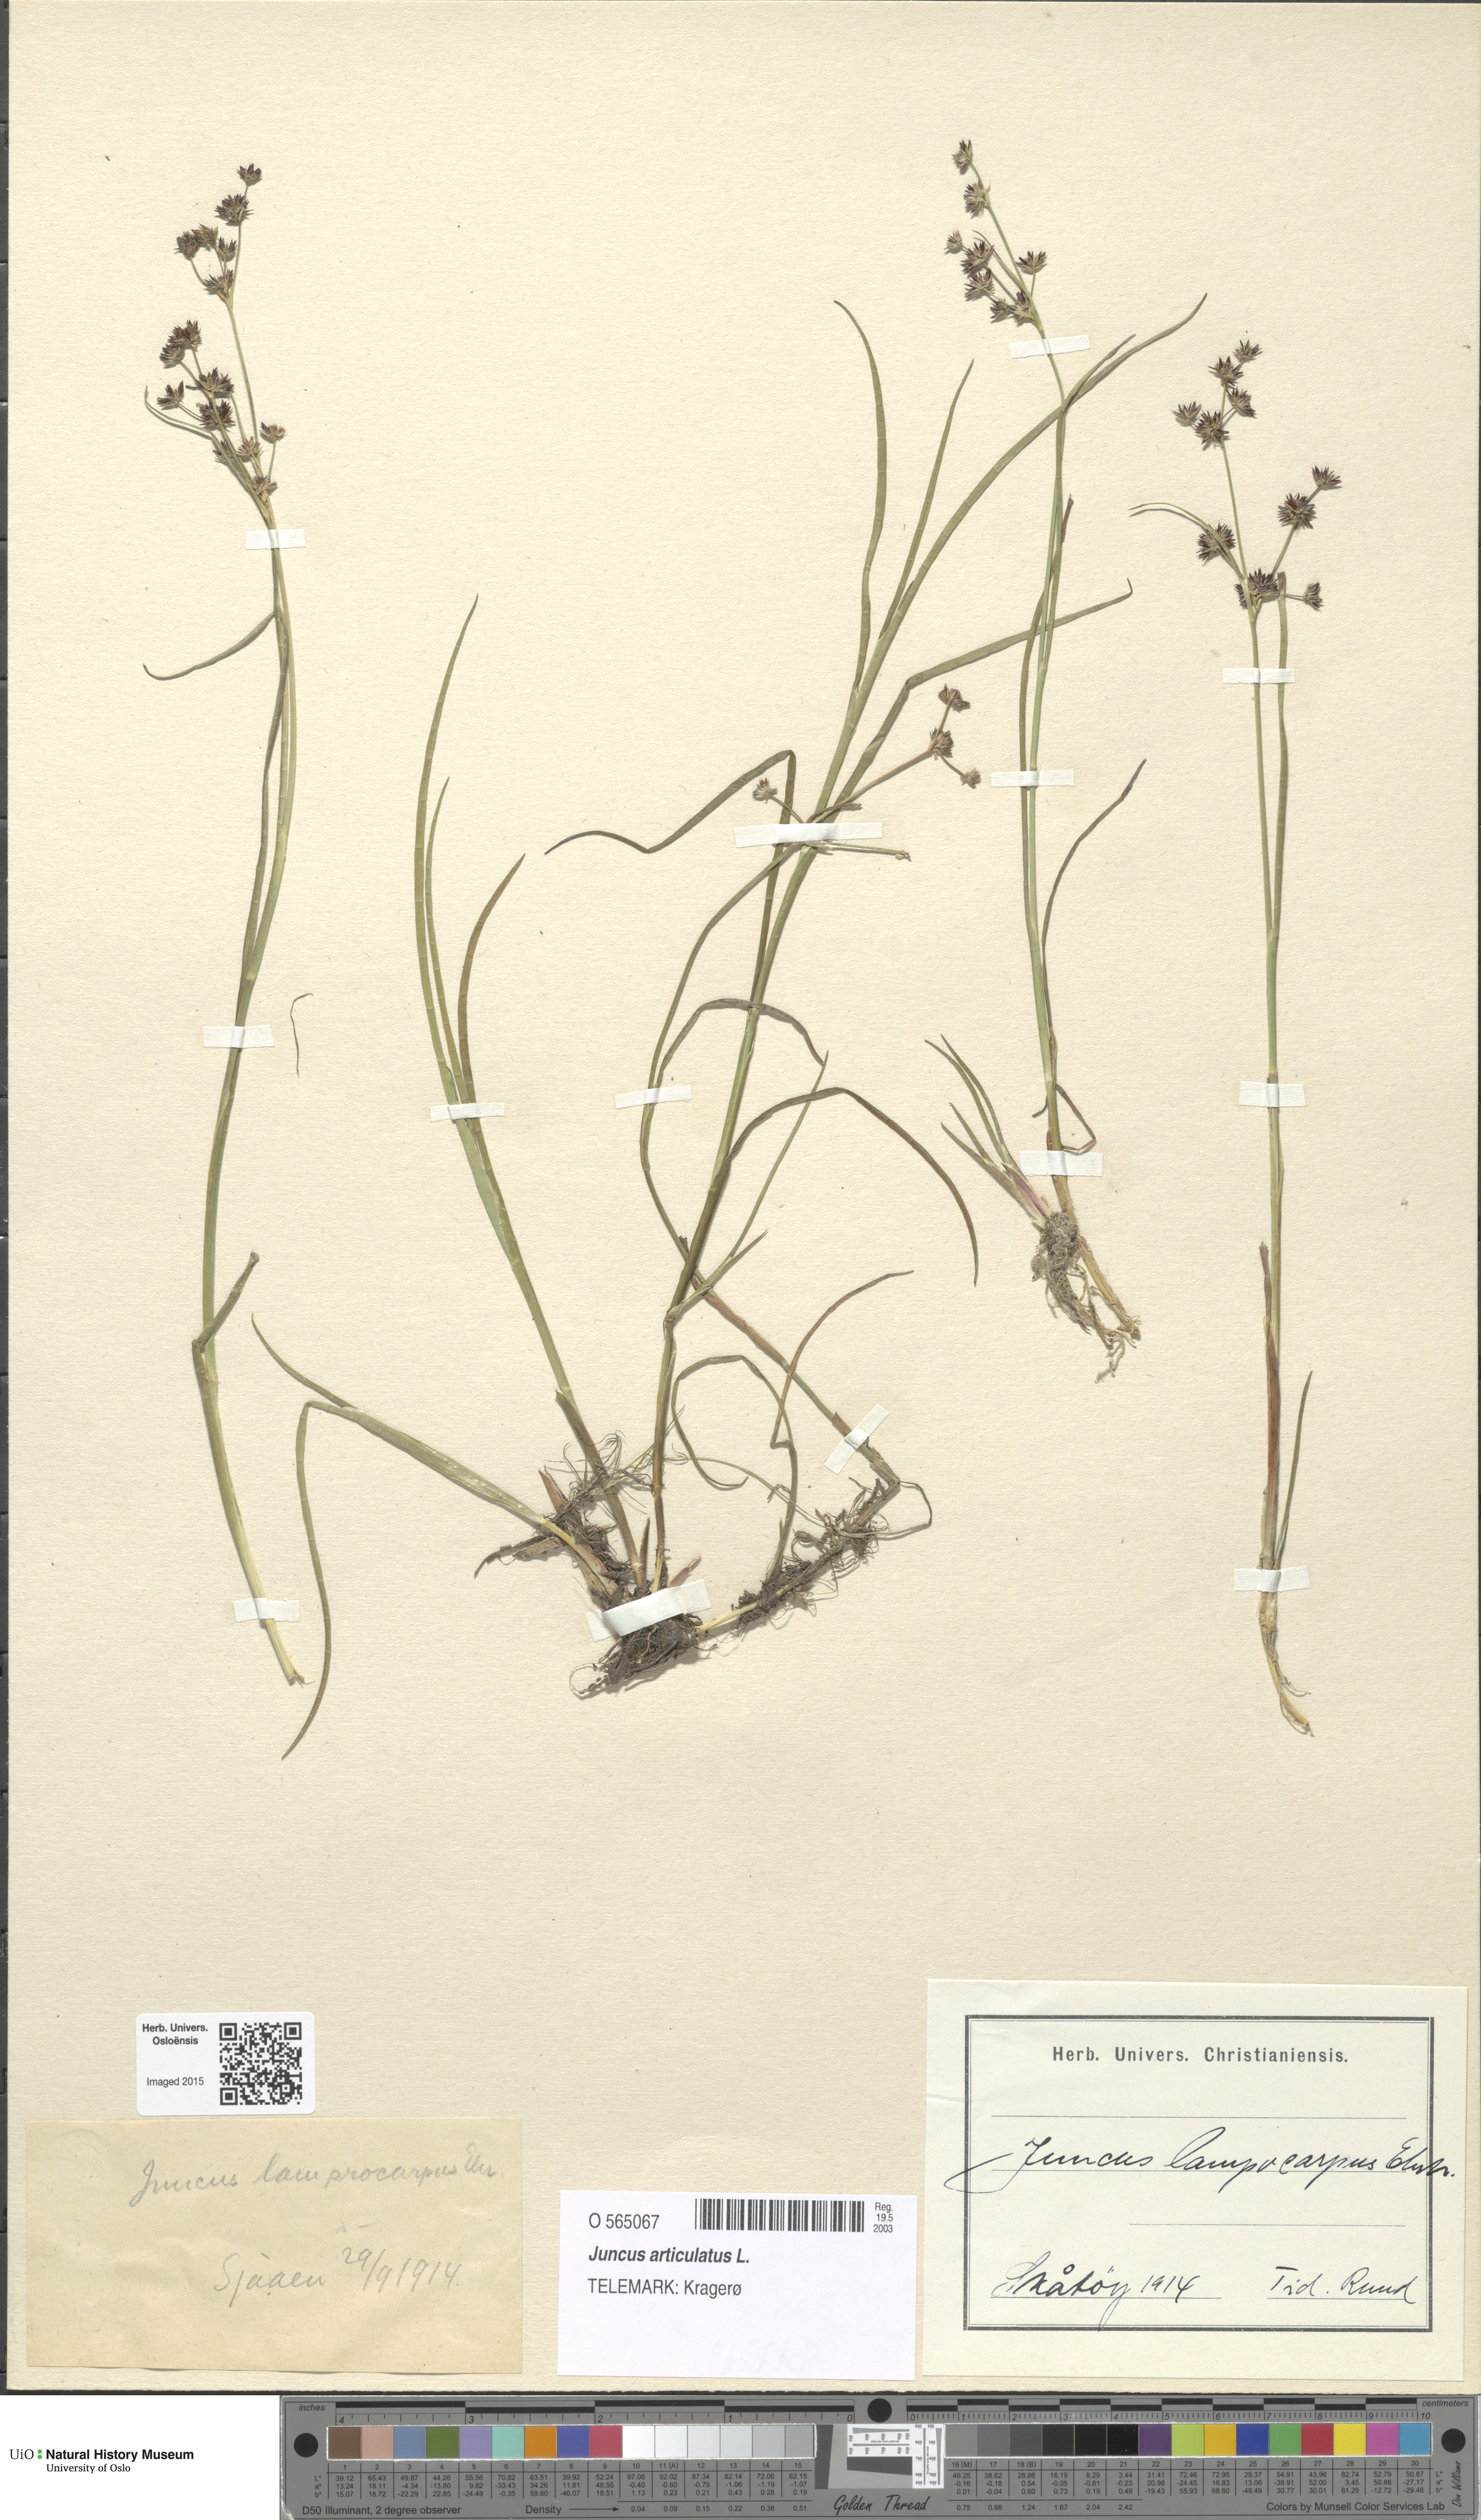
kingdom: Plantae
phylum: Tracheophyta
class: Liliopsida
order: Poales
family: Juncaceae
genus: Juncus
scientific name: Juncus articulatus
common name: Jointed rush
